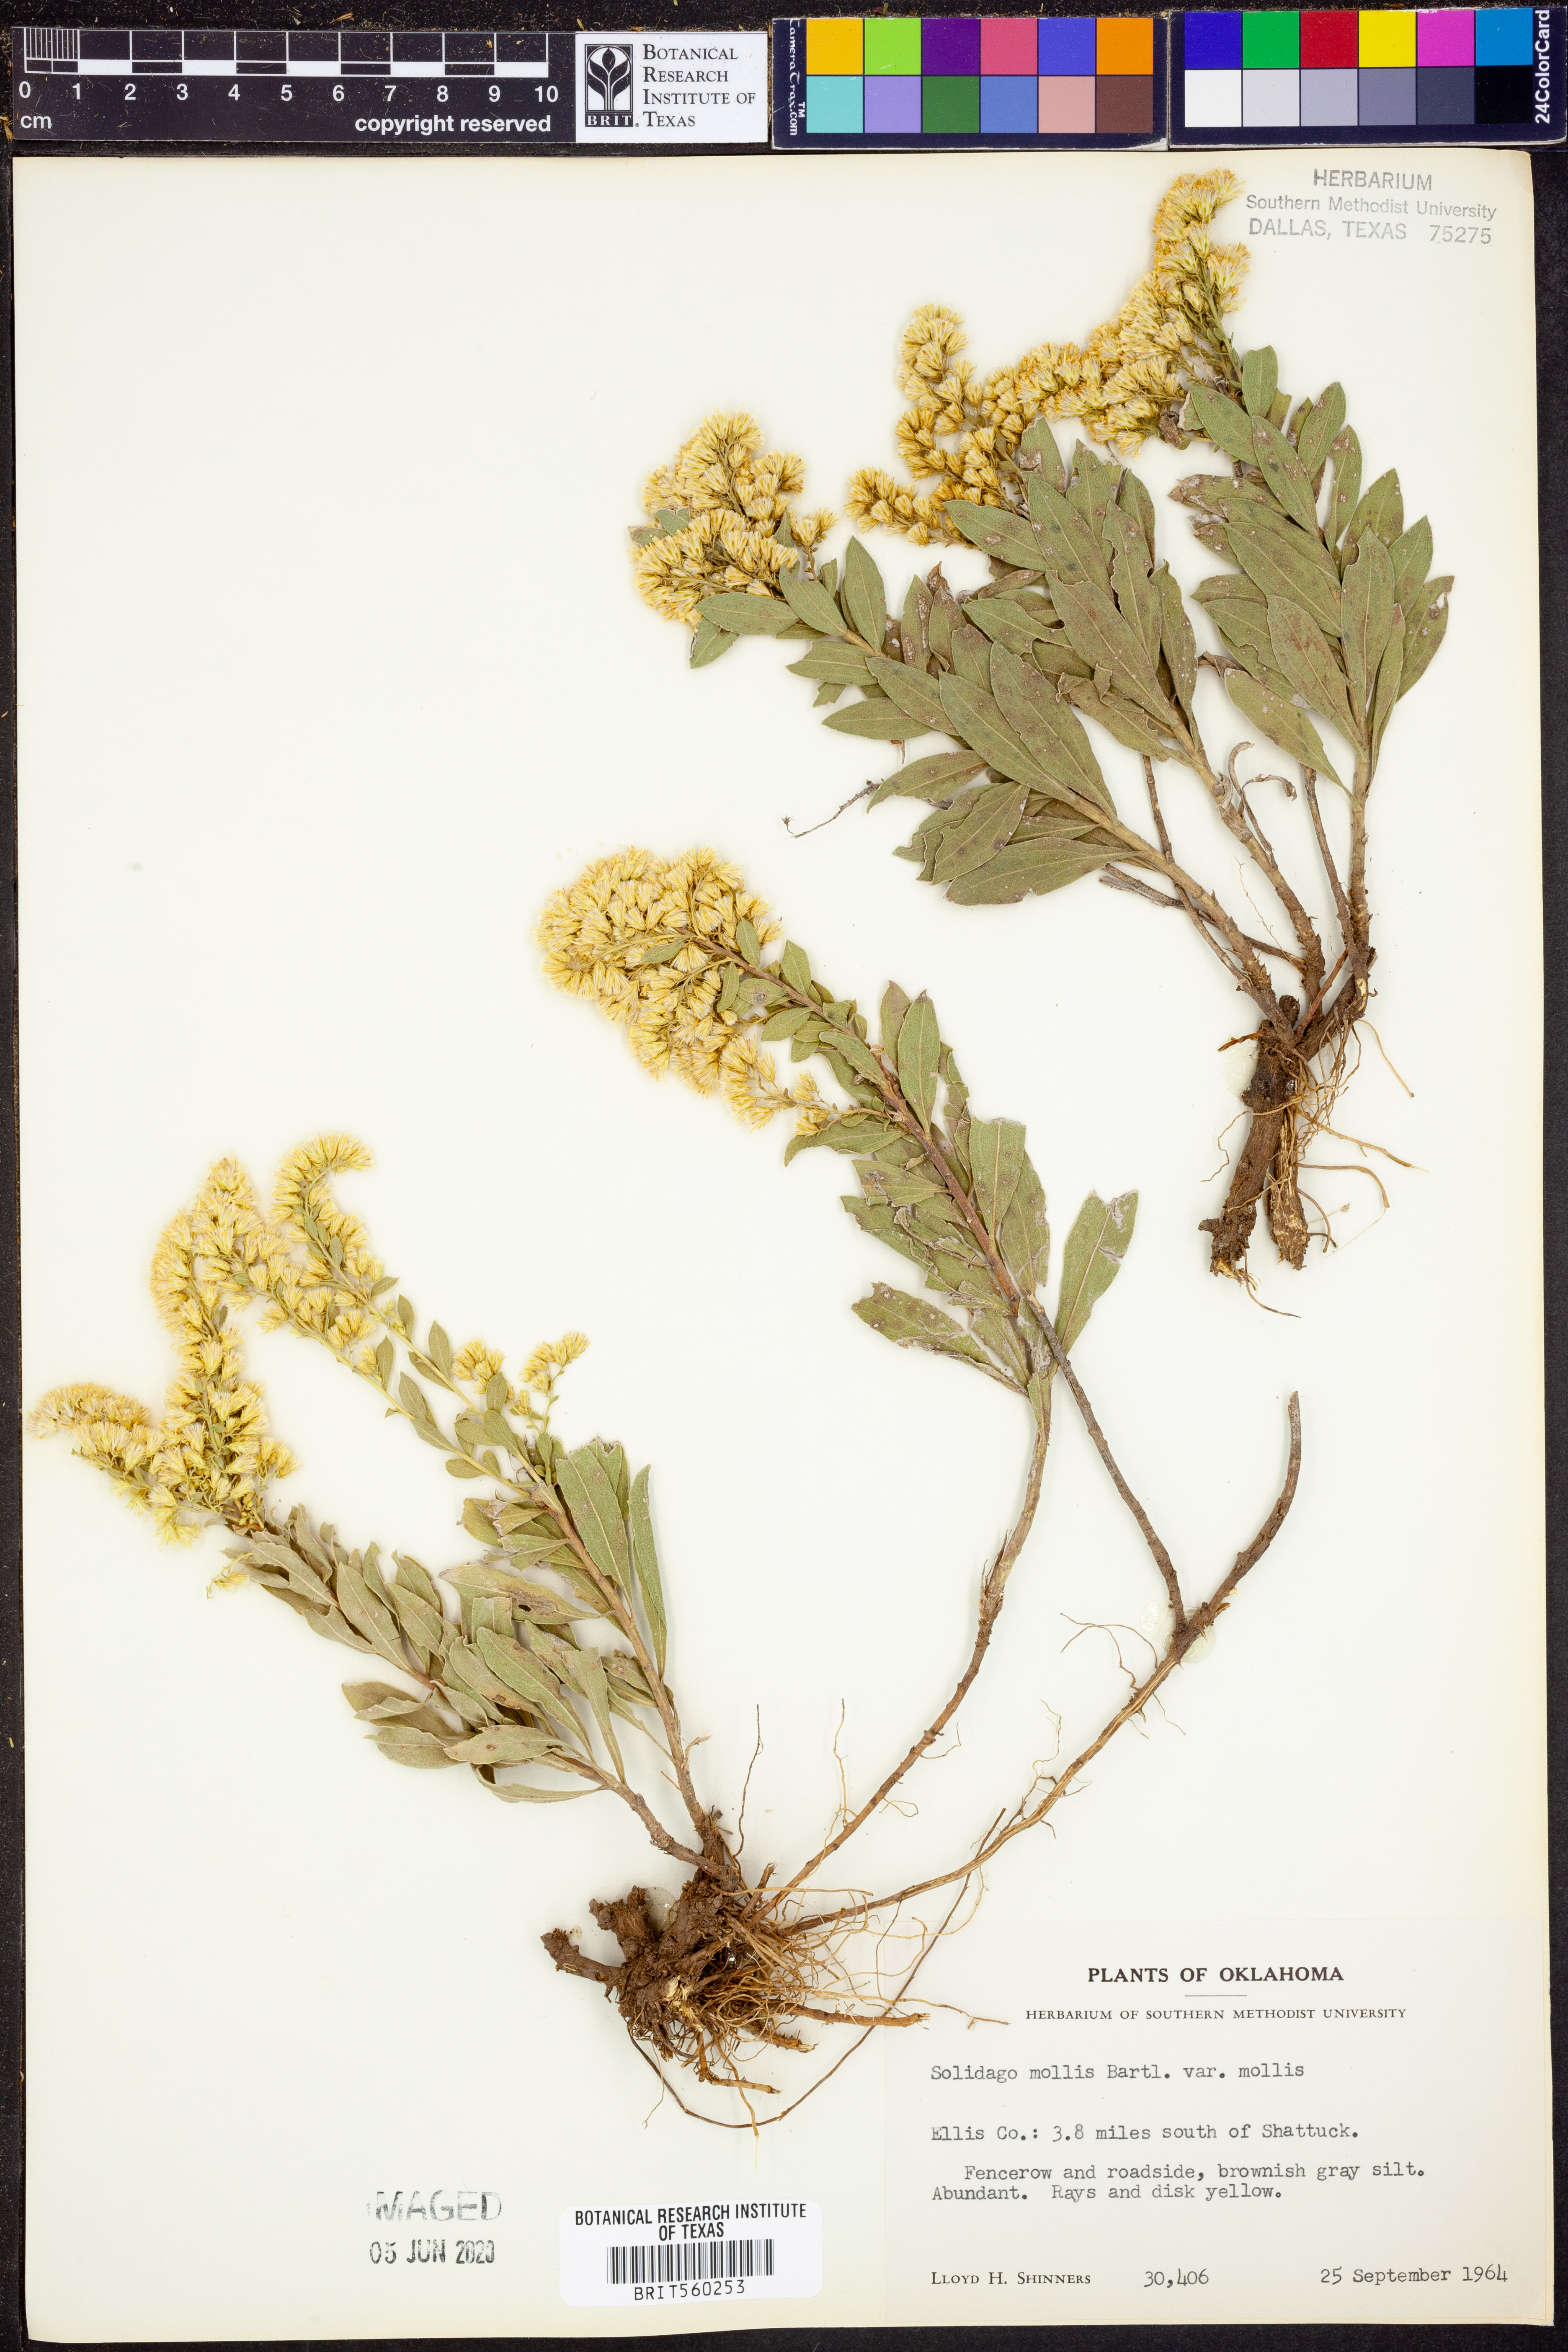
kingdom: Plantae
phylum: Tracheophyta
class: Magnoliopsida
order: Asterales
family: Asteraceae
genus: Solidago
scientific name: Solidago mollis
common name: Ashly goldenrod
